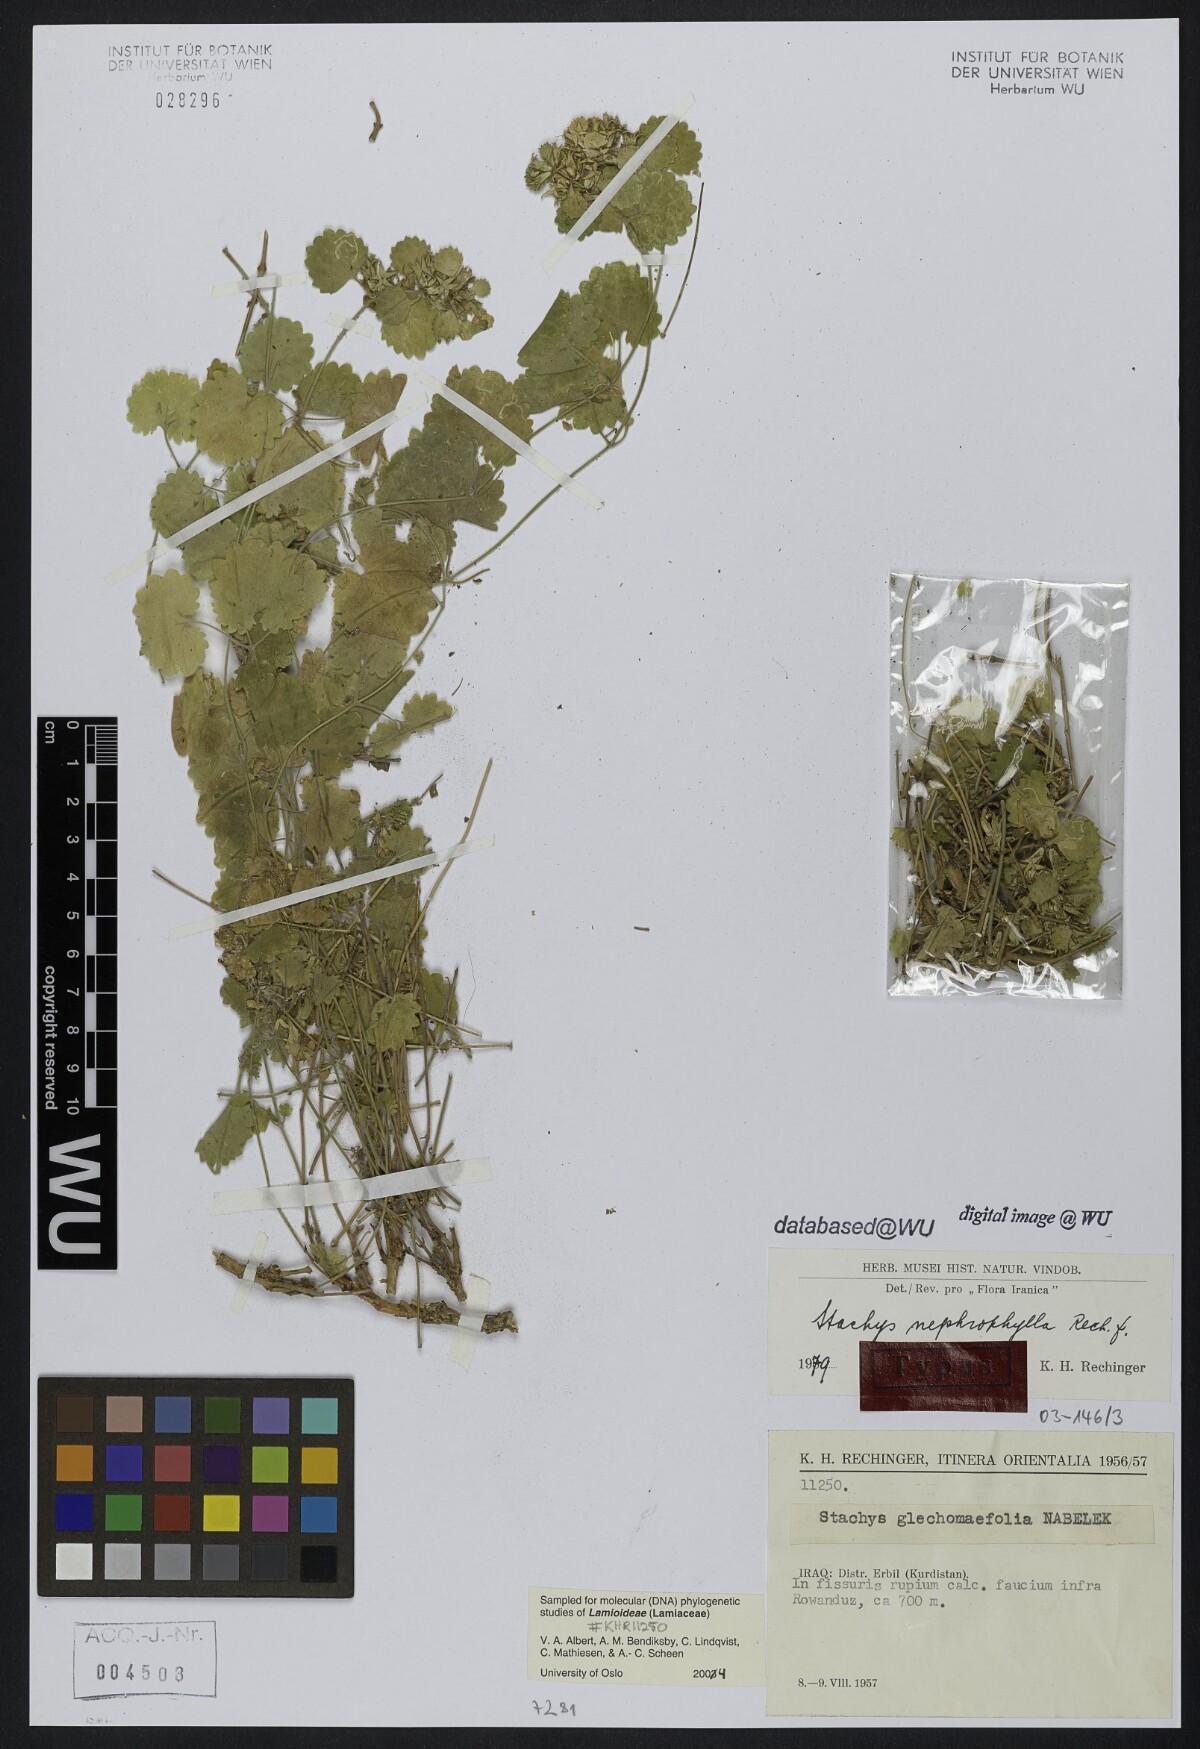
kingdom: Plantae
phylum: Tracheophyta
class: Magnoliopsida
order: Lamiales
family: Lamiaceae
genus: Stachys
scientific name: Stachys nephrophylla
